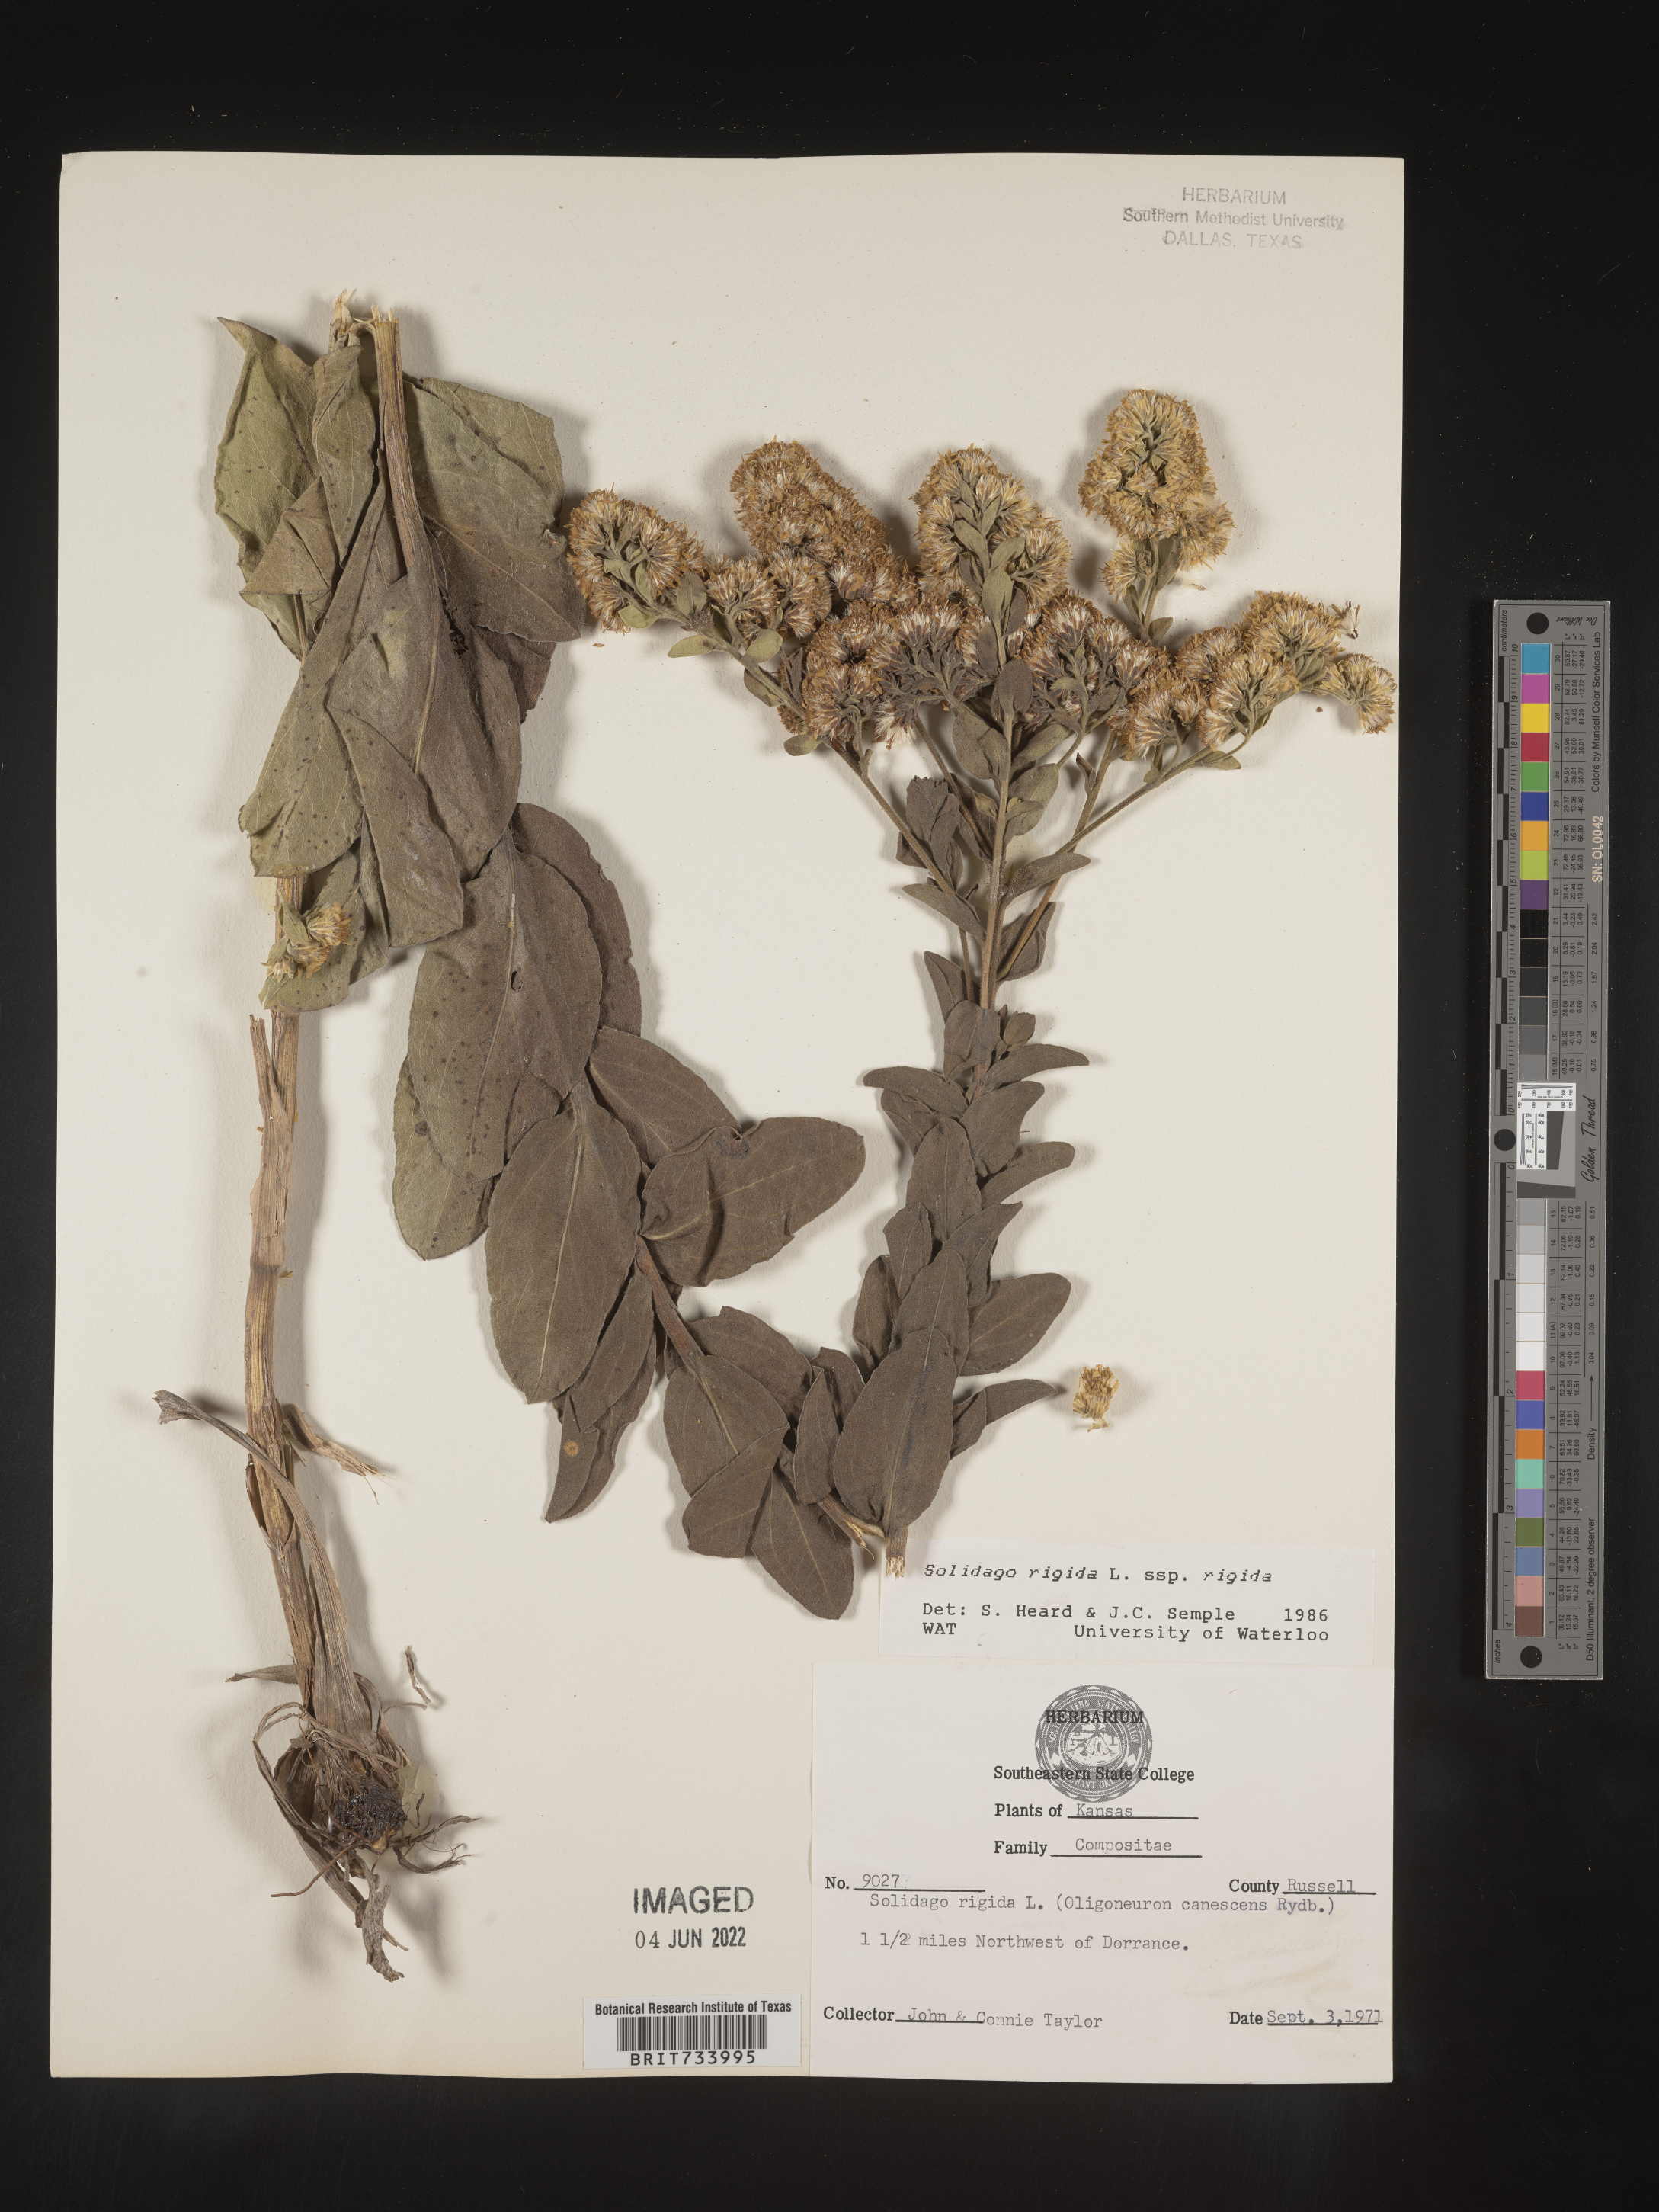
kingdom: Plantae
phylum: Tracheophyta
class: Magnoliopsida
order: Asterales
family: Asteraceae
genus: Solidago
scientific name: Solidago rigida
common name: Rigid goldenrod
